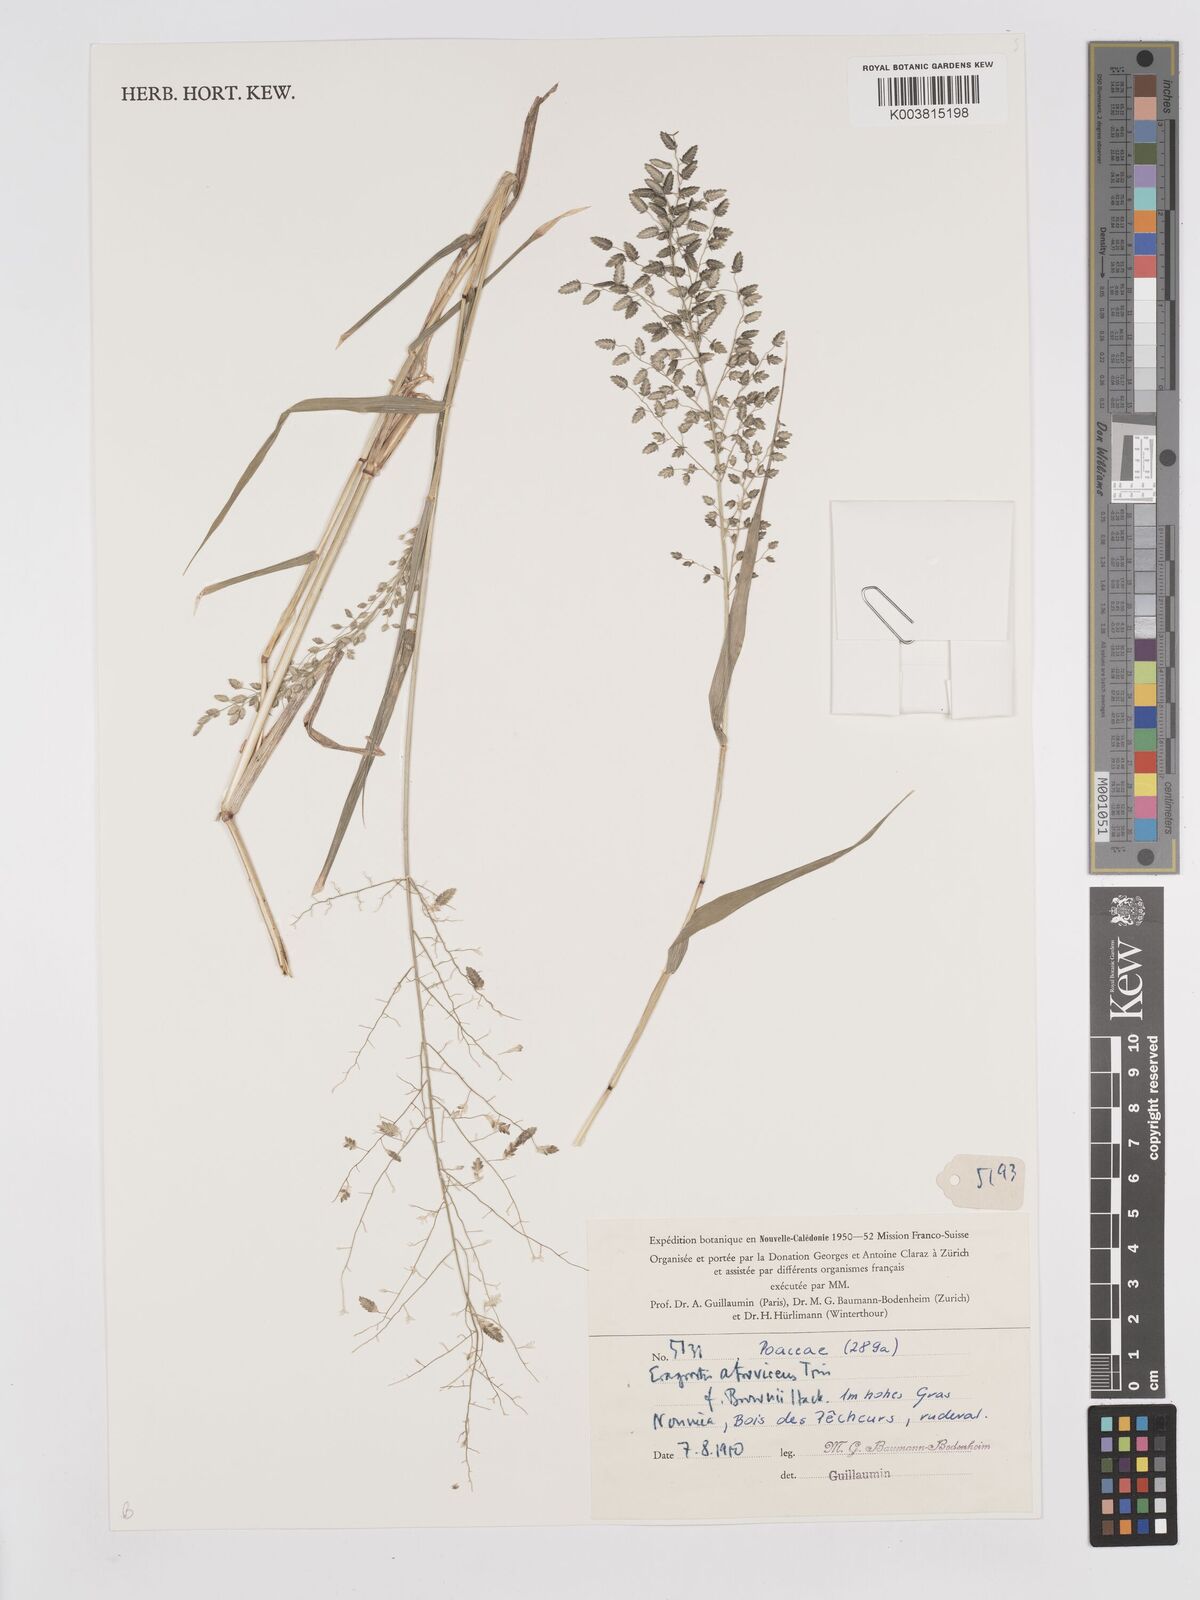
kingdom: Plantae
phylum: Tracheophyta
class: Liliopsida
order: Poales
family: Poaceae
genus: Eragrostis
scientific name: Eragrostis unioloides
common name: Chinese lovegrass
